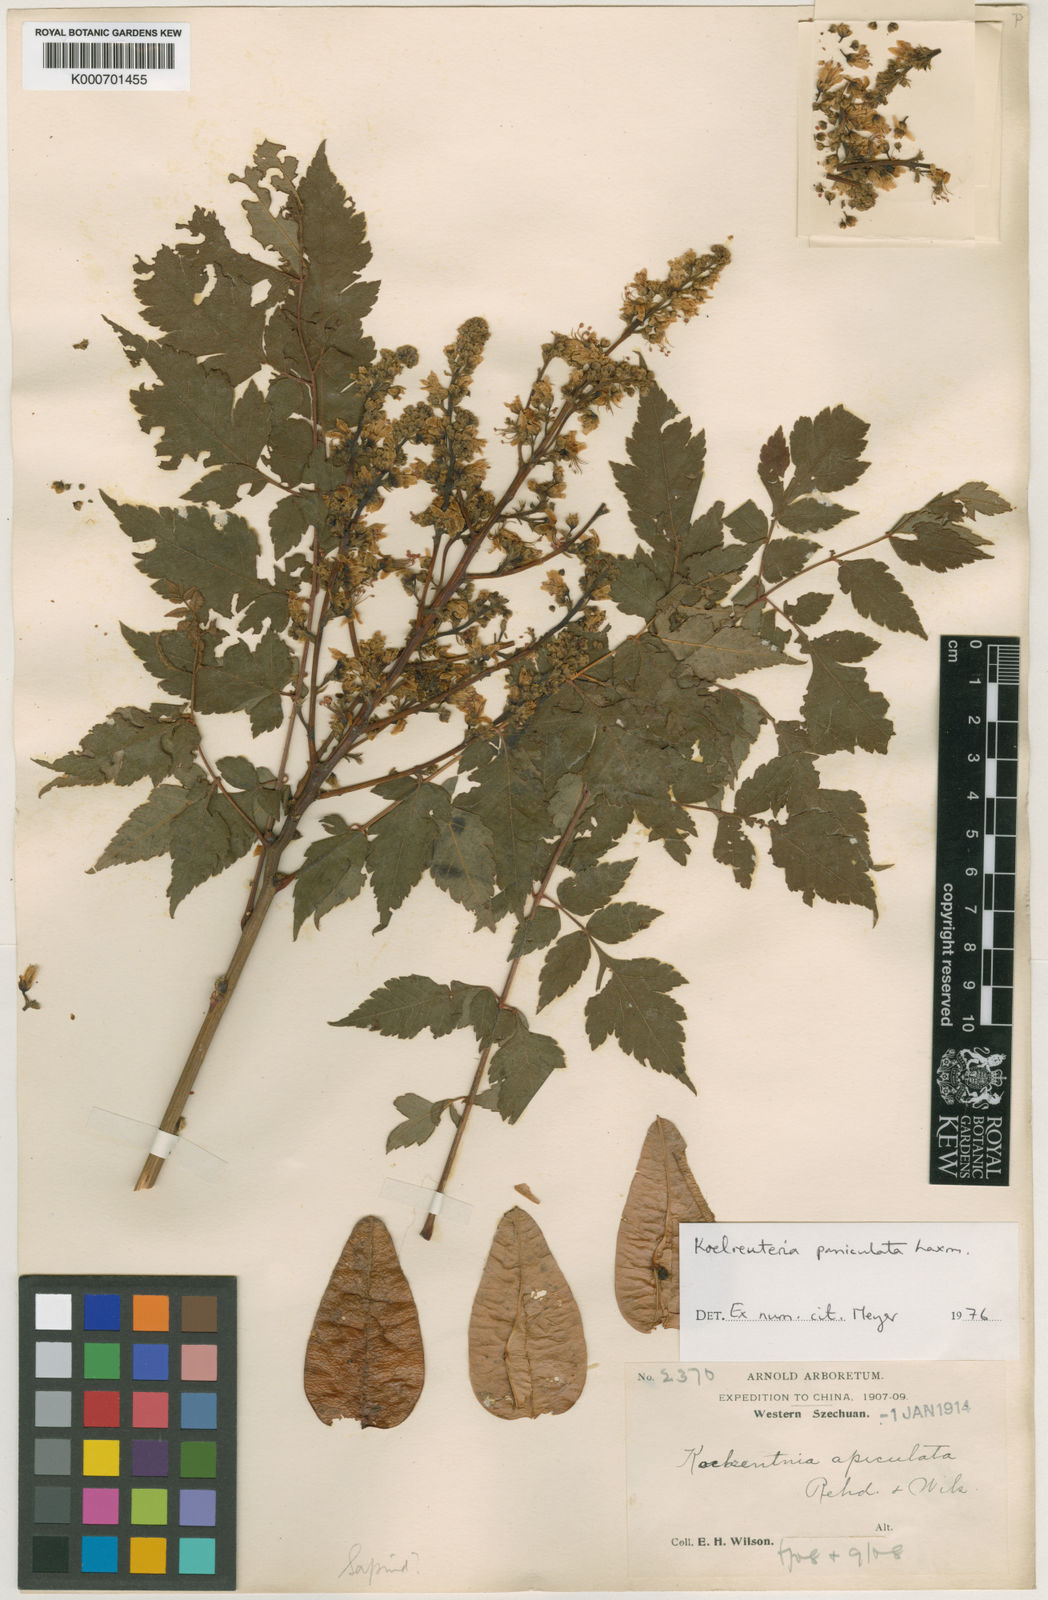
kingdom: Plantae
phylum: Tracheophyta
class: Magnoliopsida
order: Sapindales
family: Sapindaceae
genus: Koelreuteria
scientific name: Koelreuteria paniculata
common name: Pride-of-india
